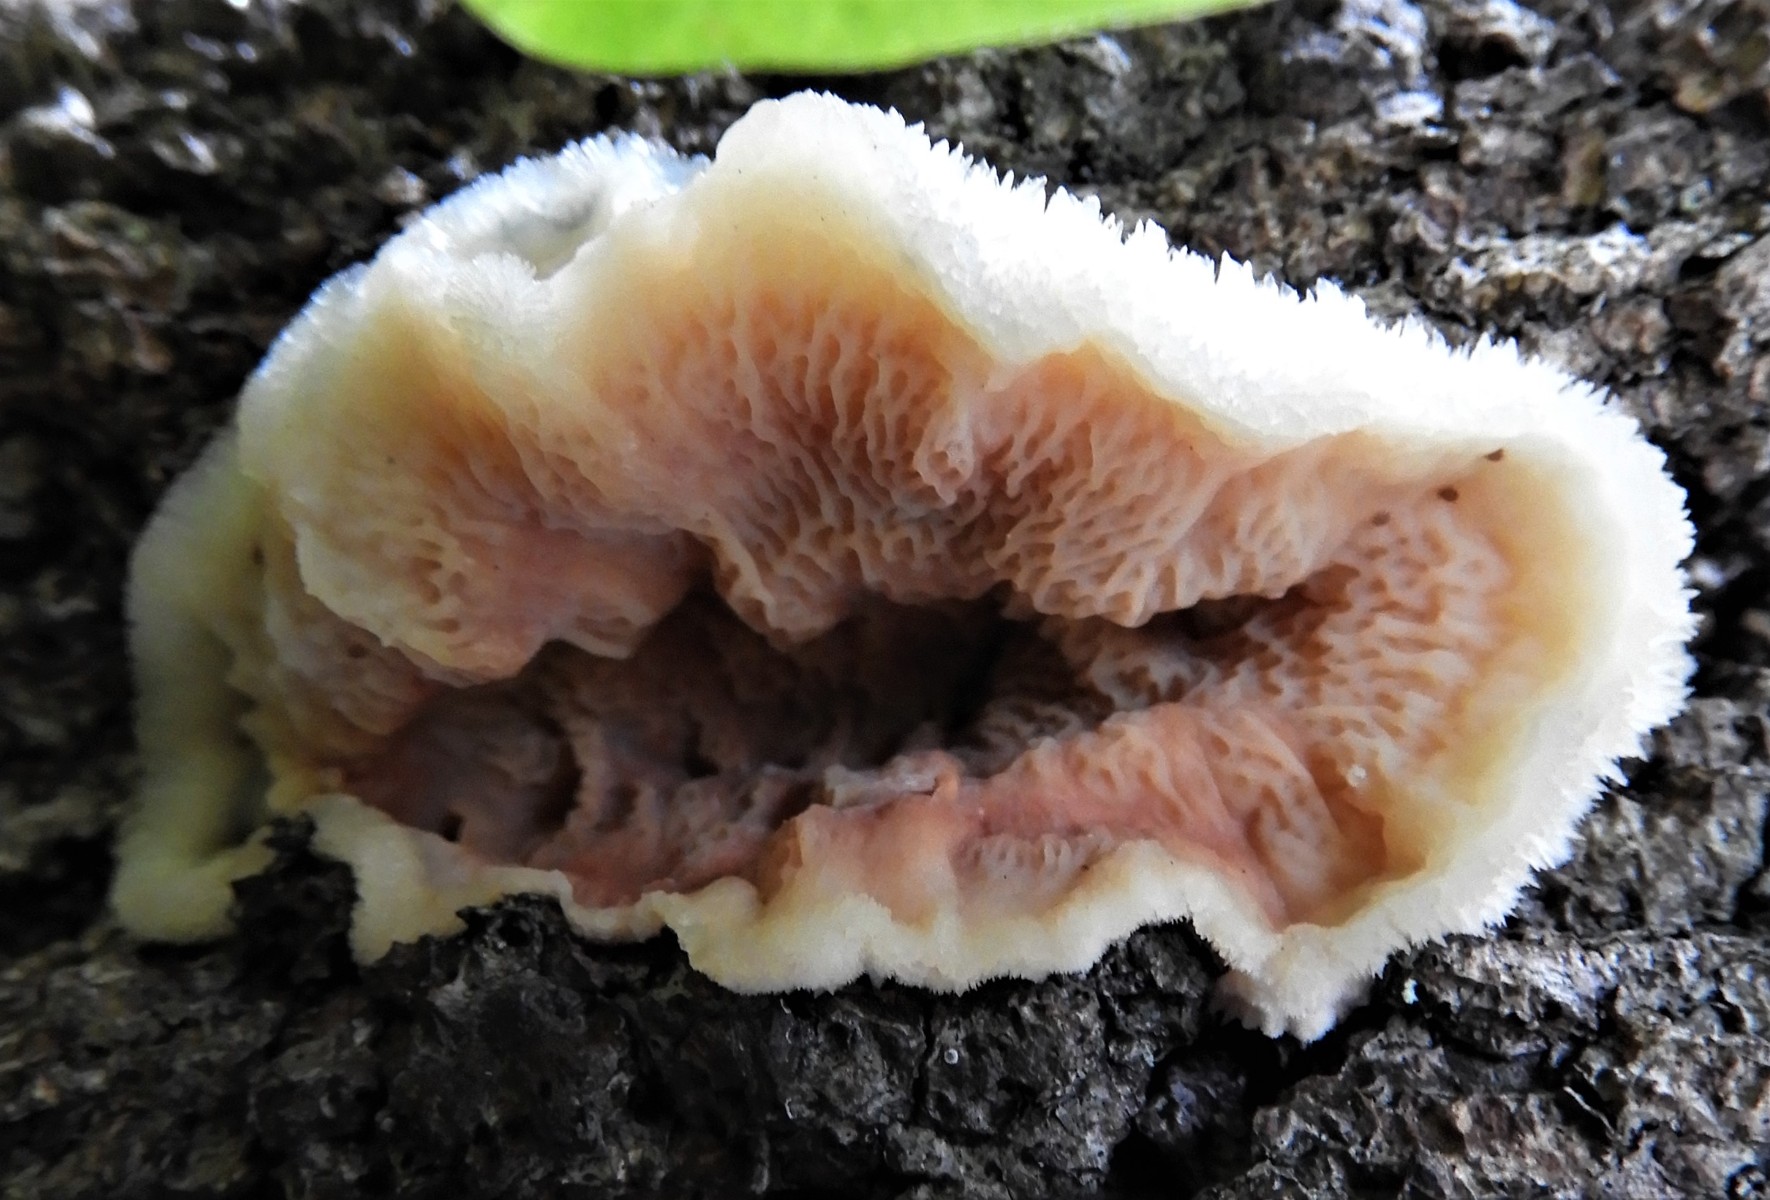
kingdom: Fungi
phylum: Basidiomycota
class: Agaricomycetes
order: Polyporales
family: Meruliaceae
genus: Phlebia
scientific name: Phlebia tremellosa
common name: bævrende åresvamp
